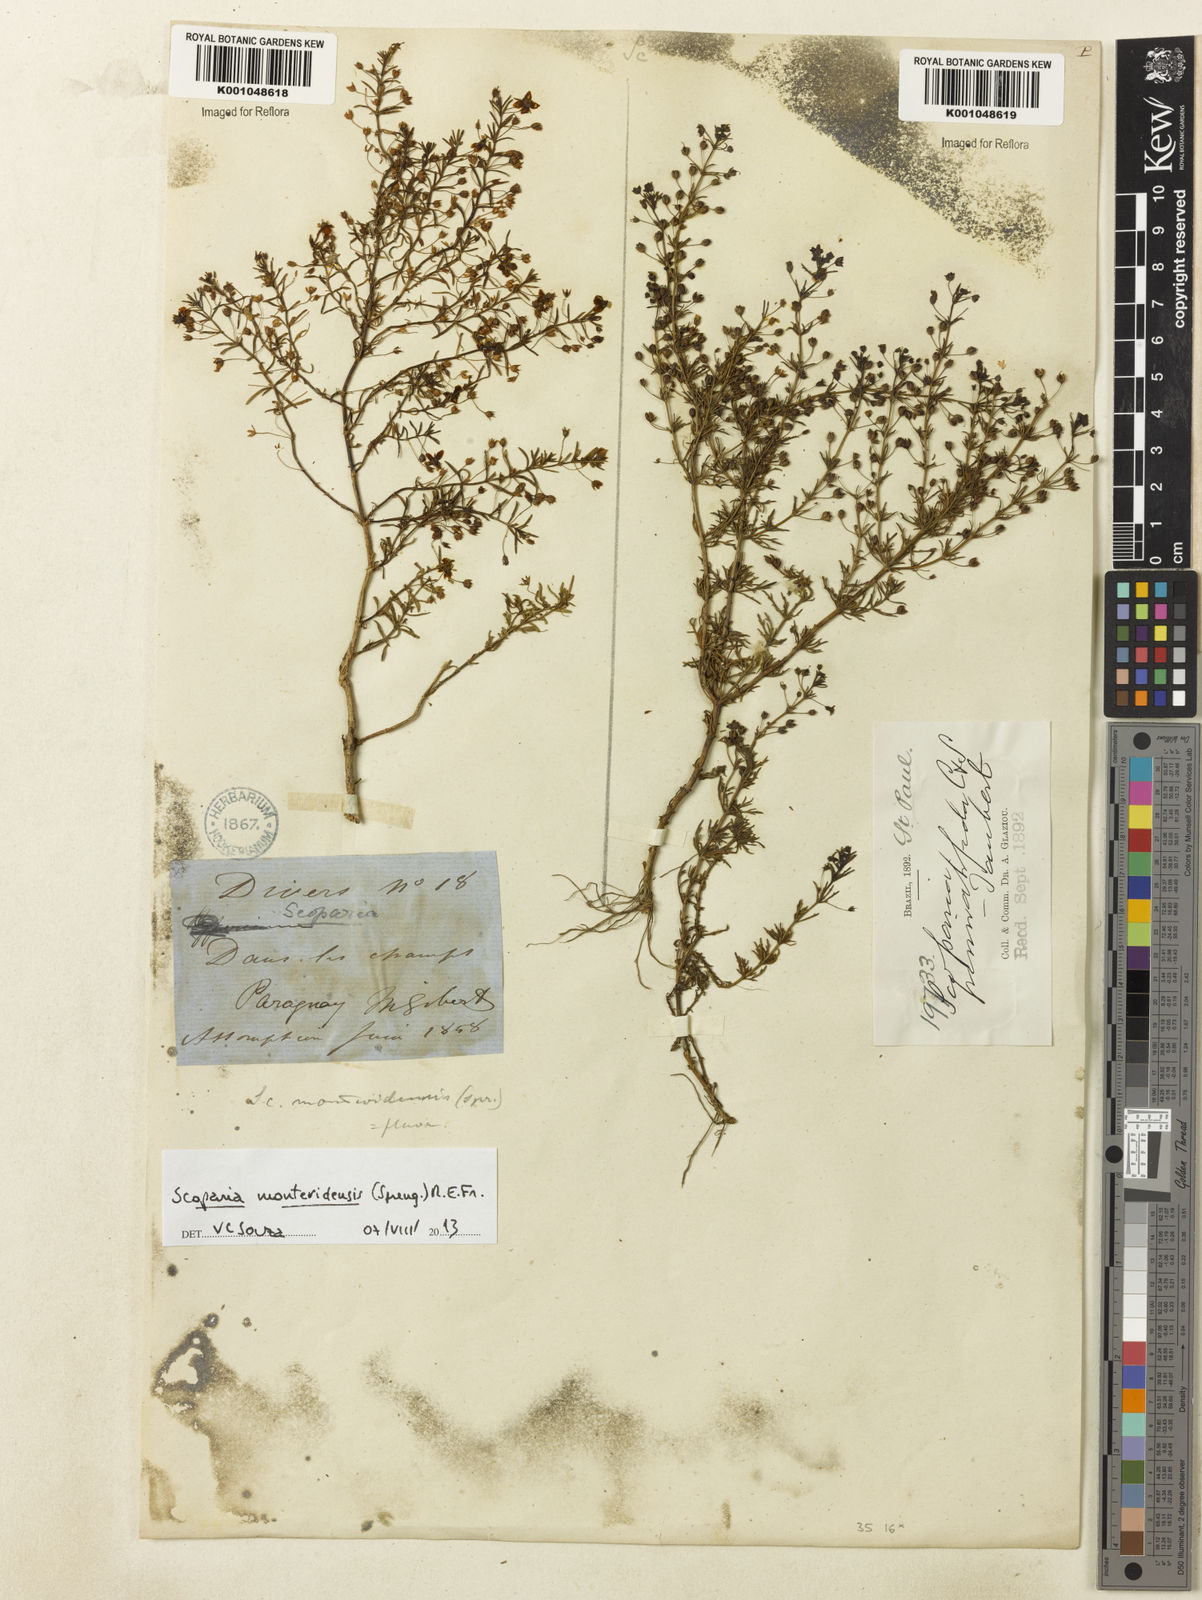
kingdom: Plantae
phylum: Tracheophyta
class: Magnoliopsida
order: Lamiales
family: Plantaginaceae
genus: Scoparia
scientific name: Scoparia montevidensis
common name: Broomwort
